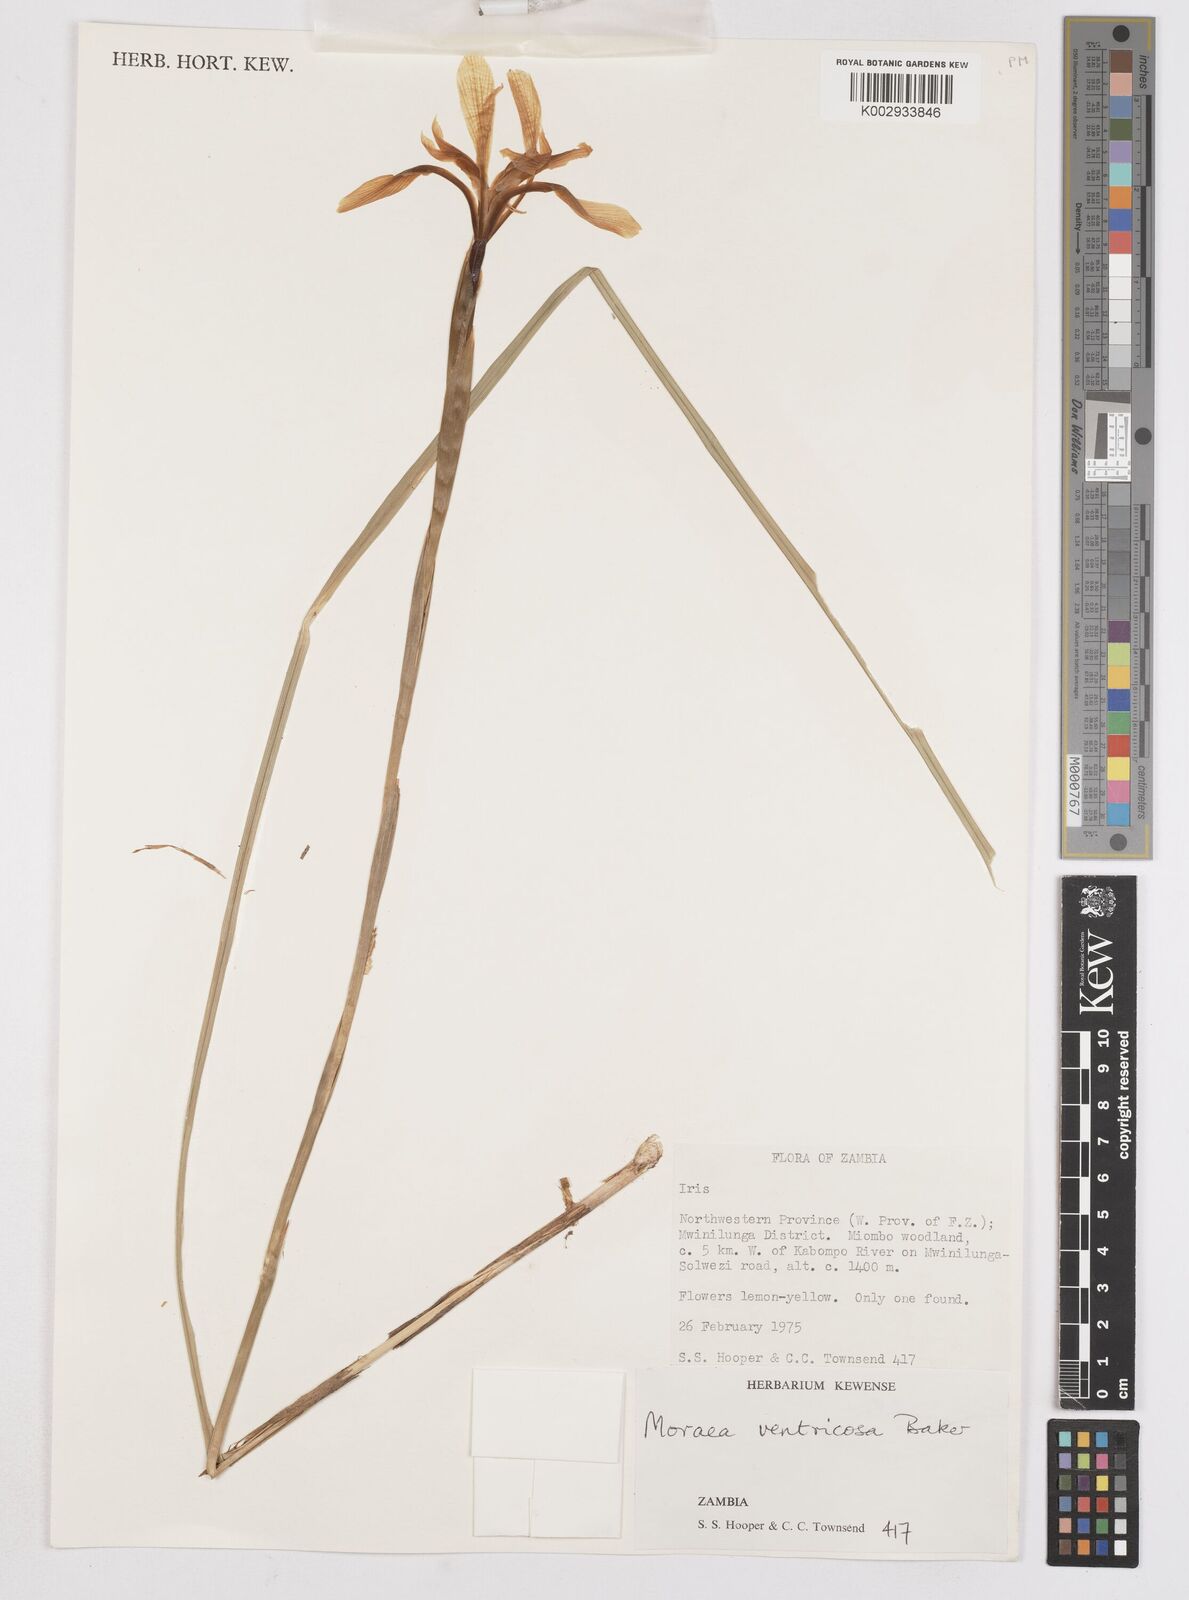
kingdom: Plantae
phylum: Tracheophyta
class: Liliopsida
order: Asparagales
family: Iridaceae
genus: Moraea
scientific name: Moraea ventricosa
